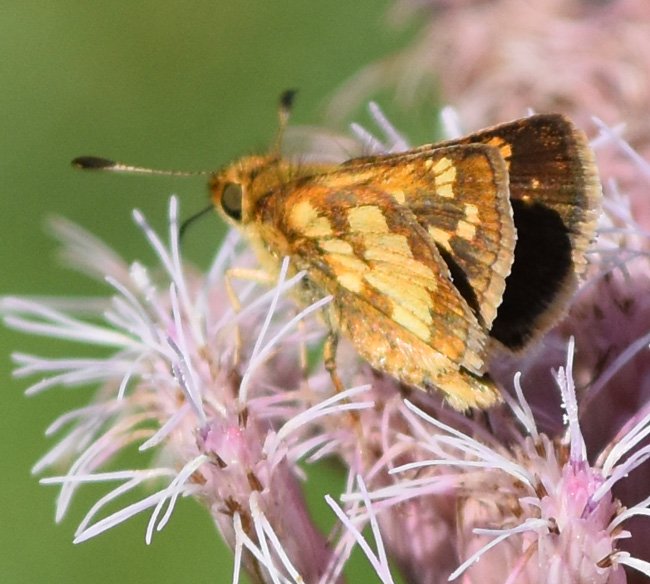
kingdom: Animalia
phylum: Arthropoda
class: Insecta
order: Lepidoptera
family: Hesperiidae
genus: Polites
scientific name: Polites coras
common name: Peck's Skipper
